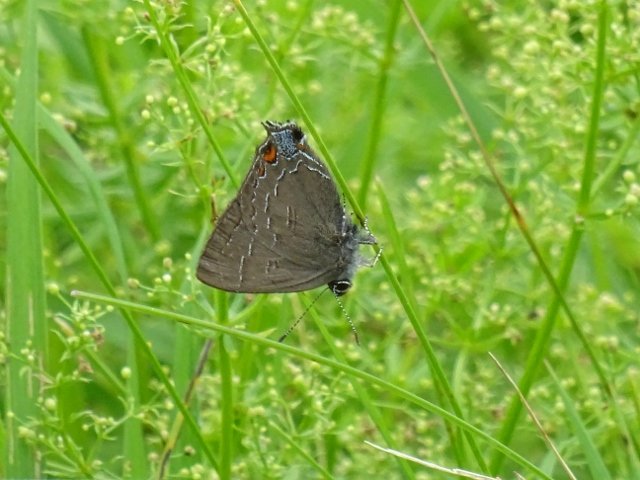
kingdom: Animalia
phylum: Arthropoda
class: Insecta
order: Lepidoptera
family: Lycaenidae
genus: Satyrium
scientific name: Satyrium calanus
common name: Banded Hairstreak
